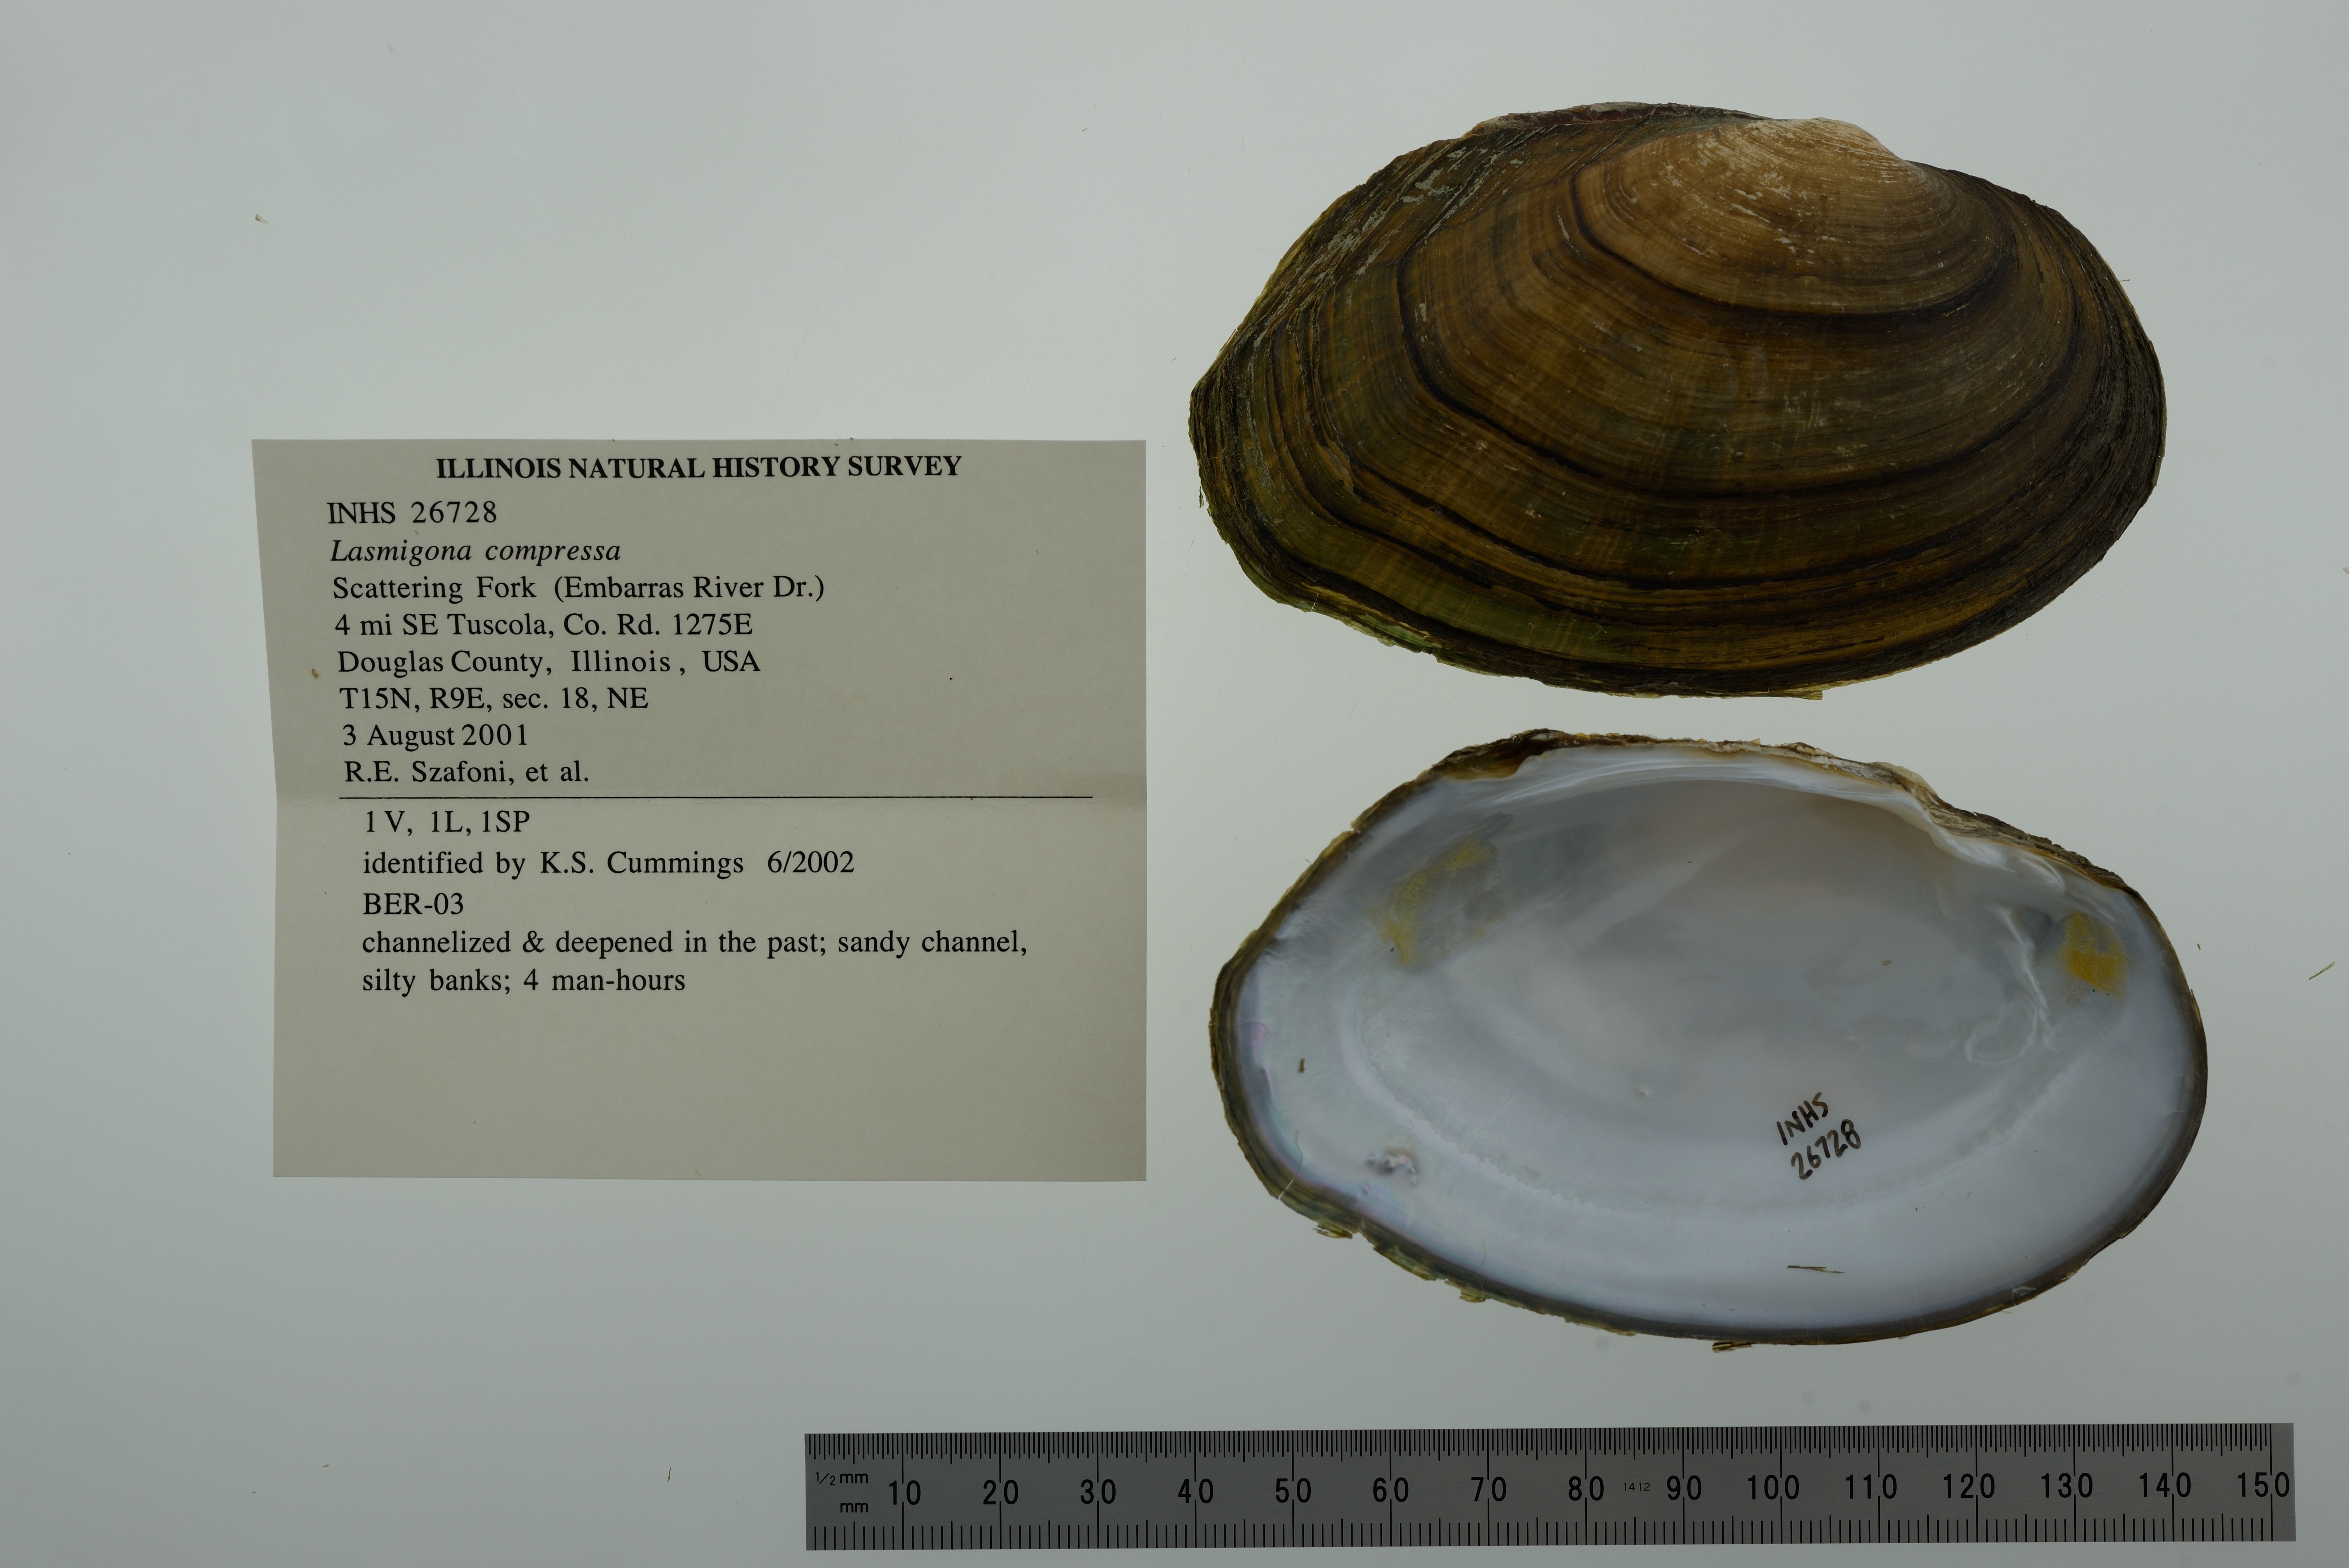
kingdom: Animalia
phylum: Mollusca
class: Bivalvia
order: Unionida
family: Unionidae
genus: Lasmigona
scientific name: Lasmigona compressa
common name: Creek heelsplitter
